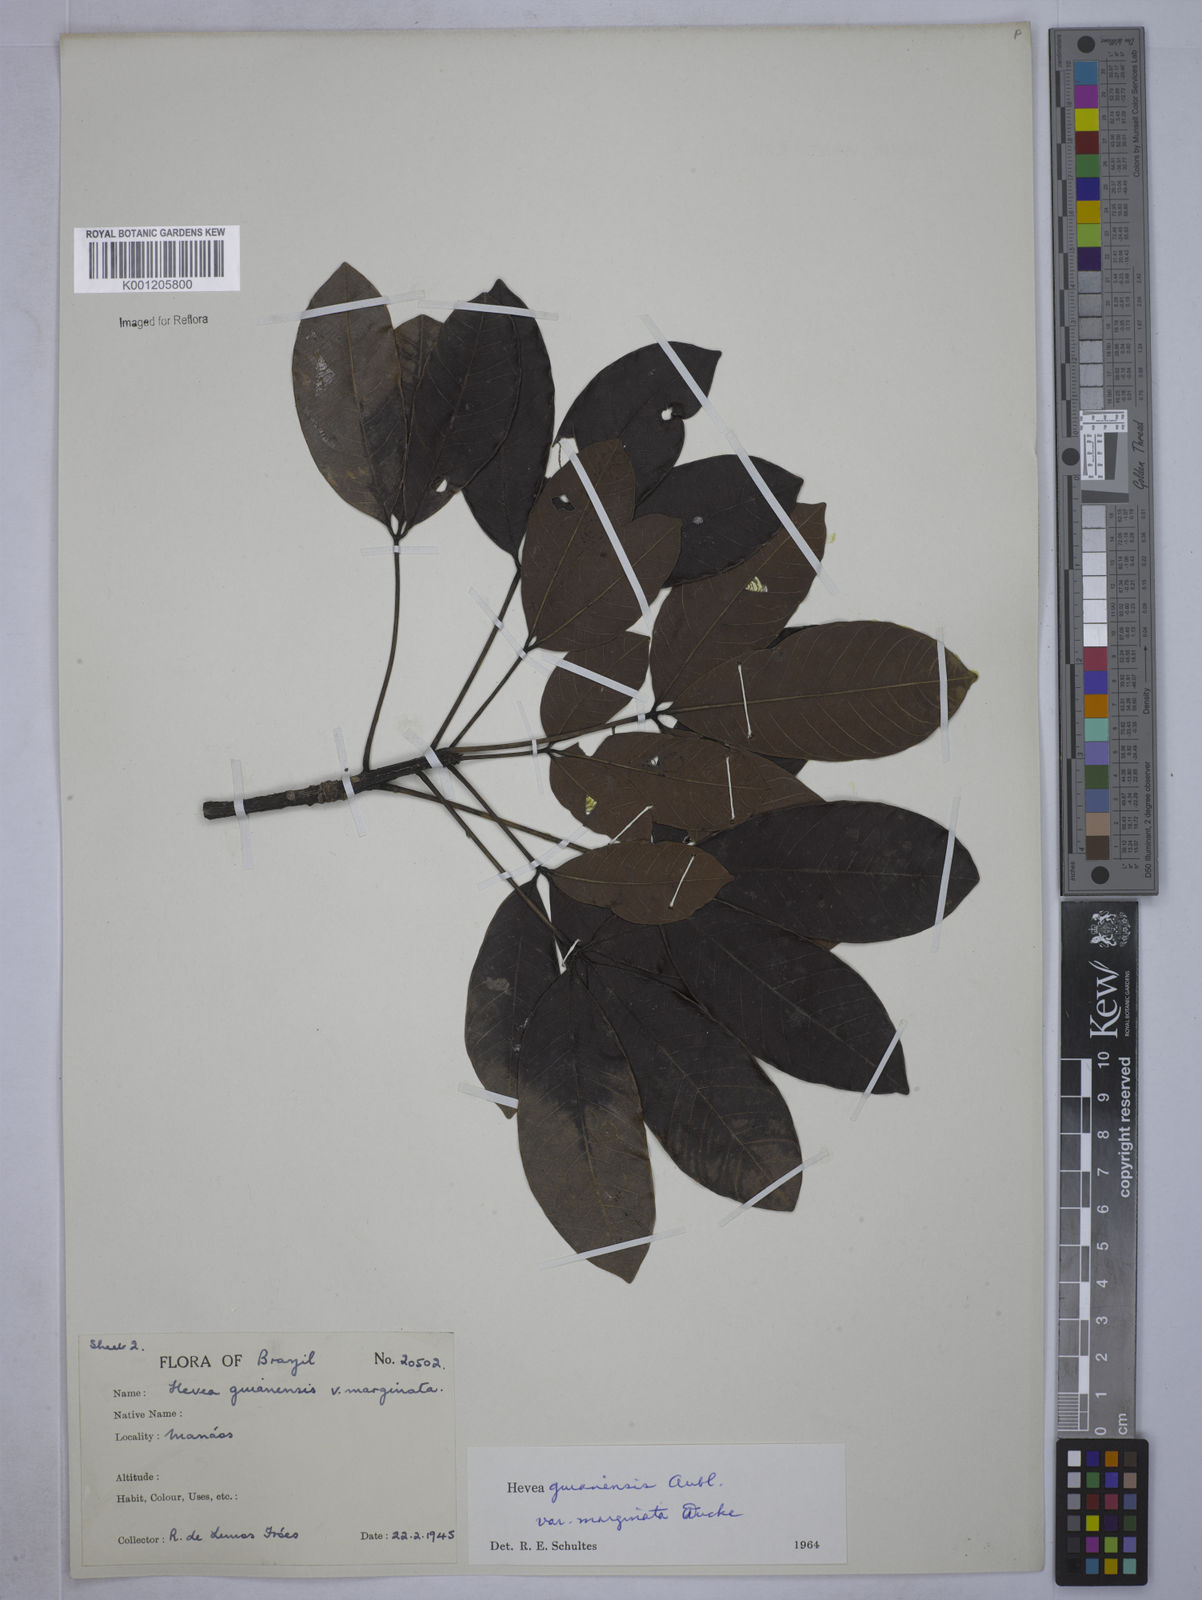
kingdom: Plantae
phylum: Tracheophyta
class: Magnoliopsida
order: Malpighiales
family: Euphorbiaceae
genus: Hevea
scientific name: Hevea guianensis
